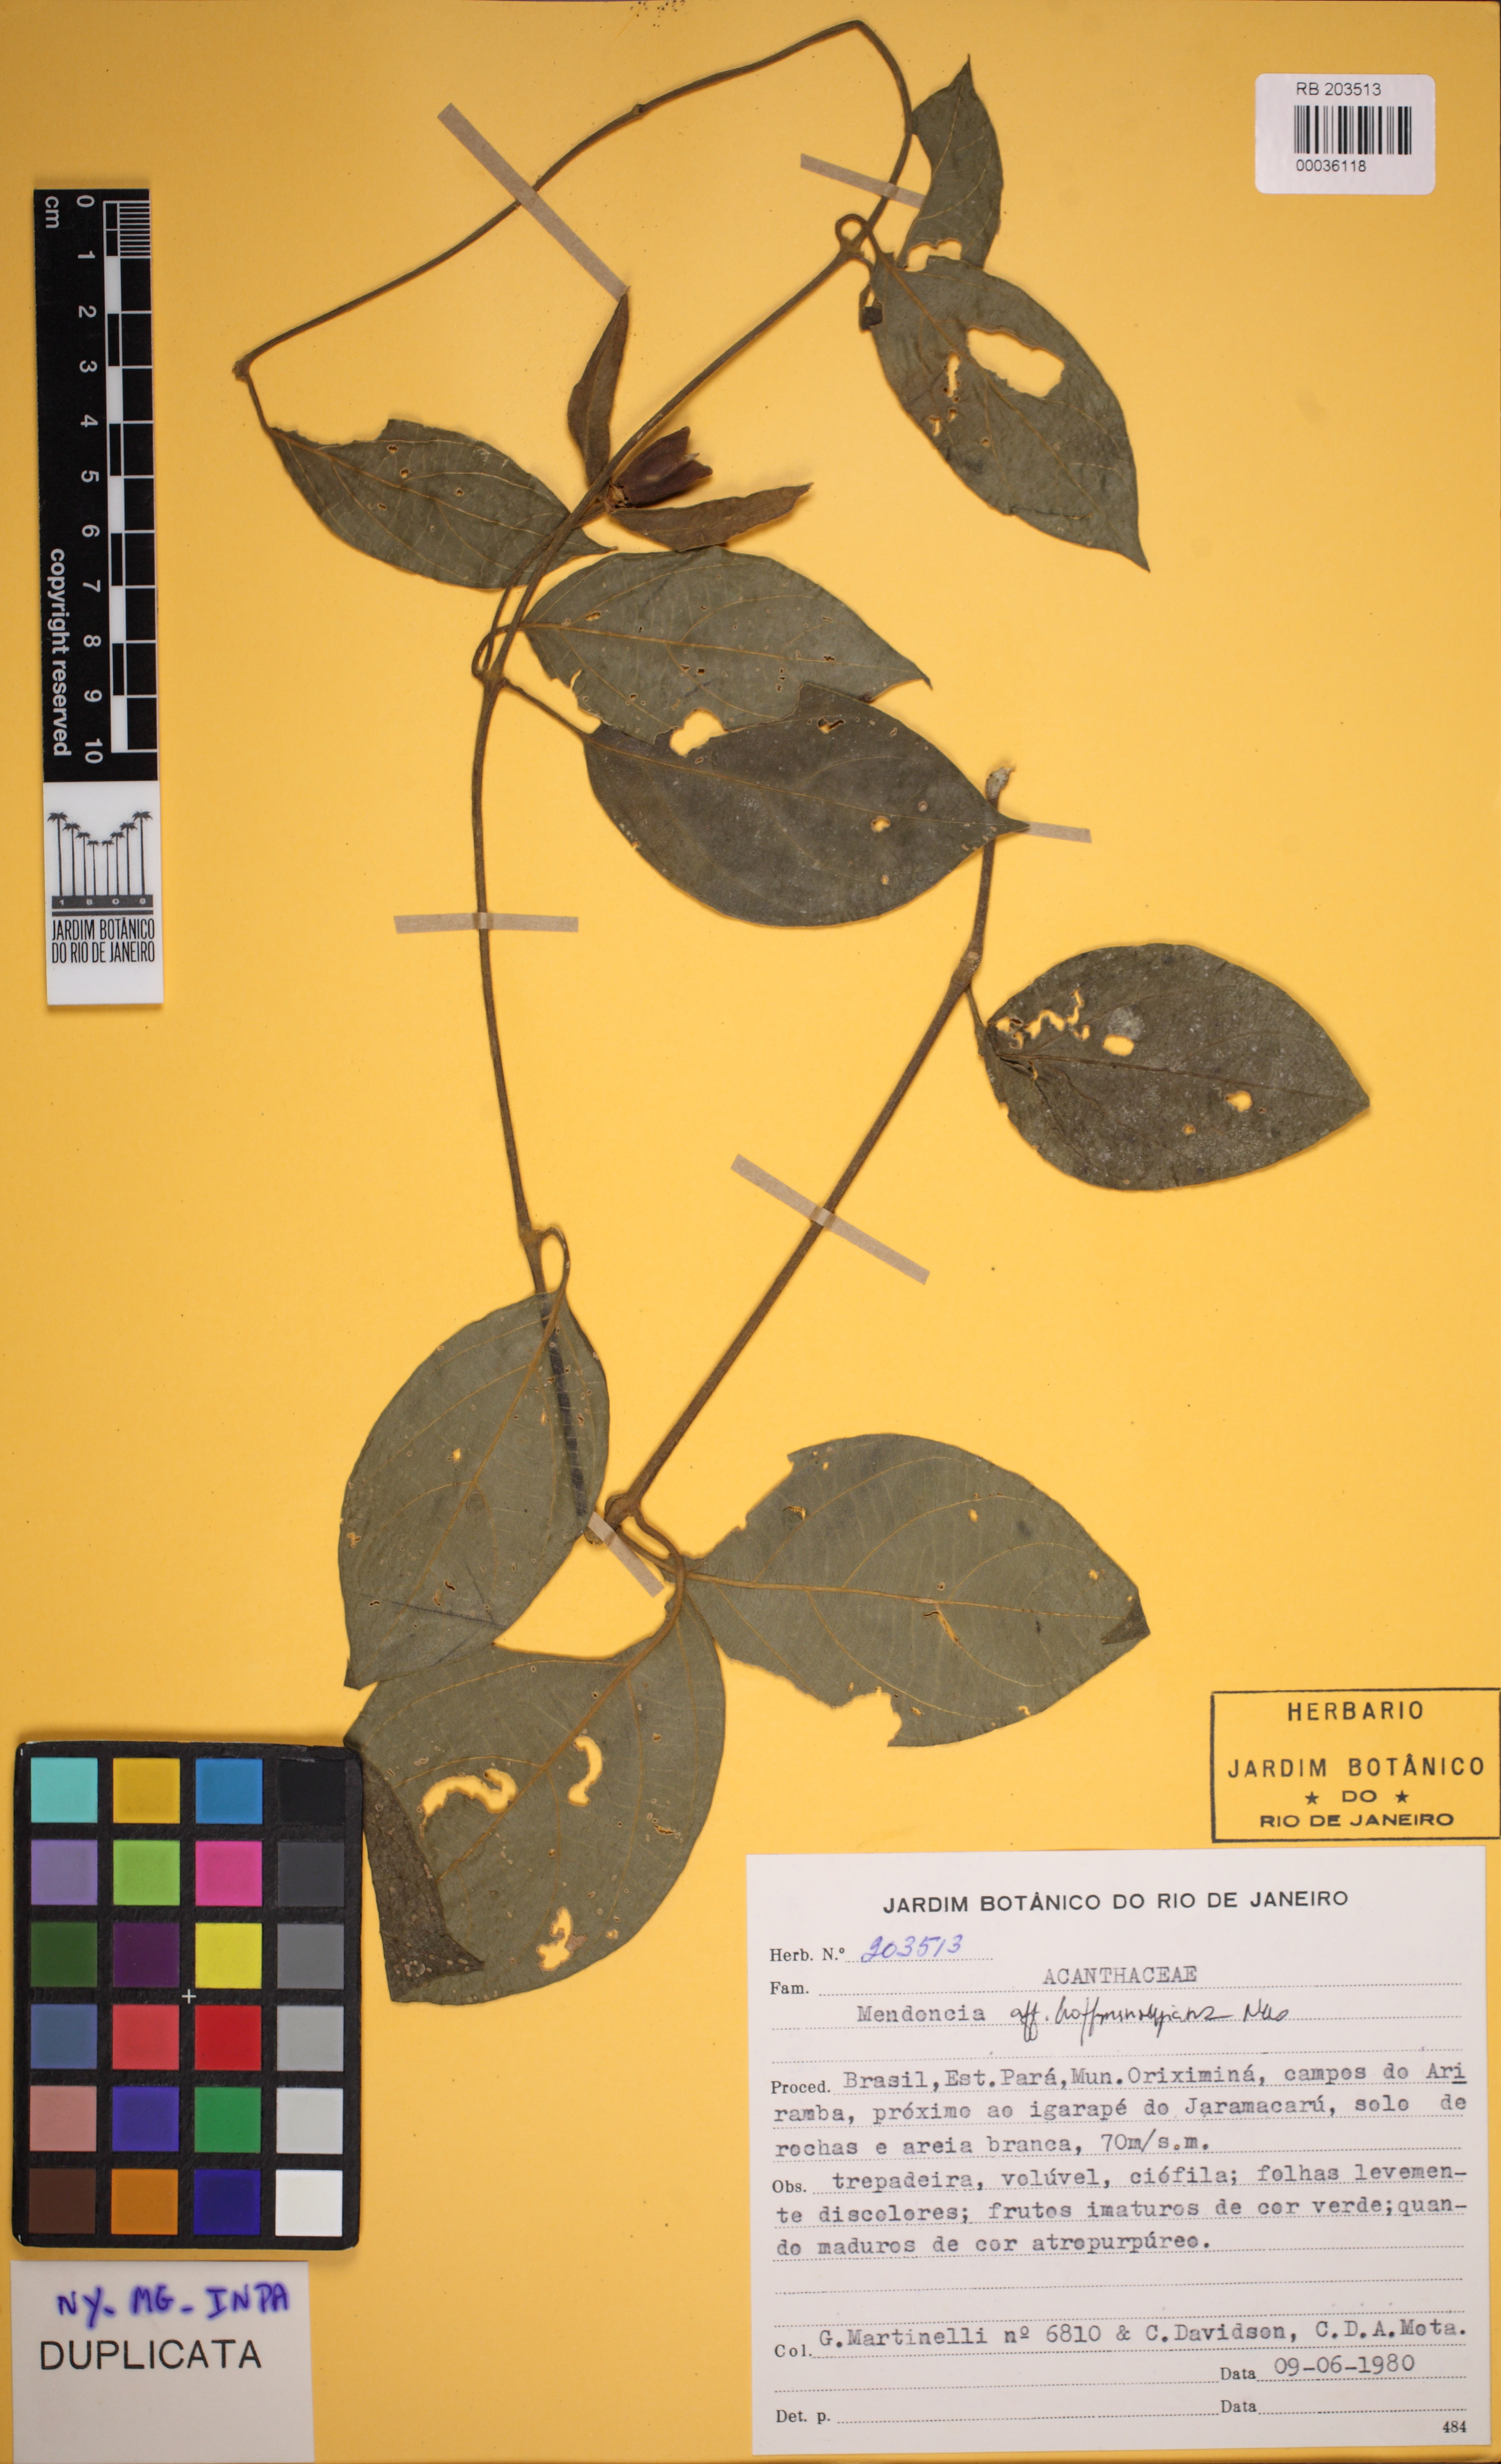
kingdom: Plantae
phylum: Tracheophyta
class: Magnoliopsida
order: Lamiales
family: Acanthaceae
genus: Mendoncia
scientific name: Mendoncia hoffmannseggiana
